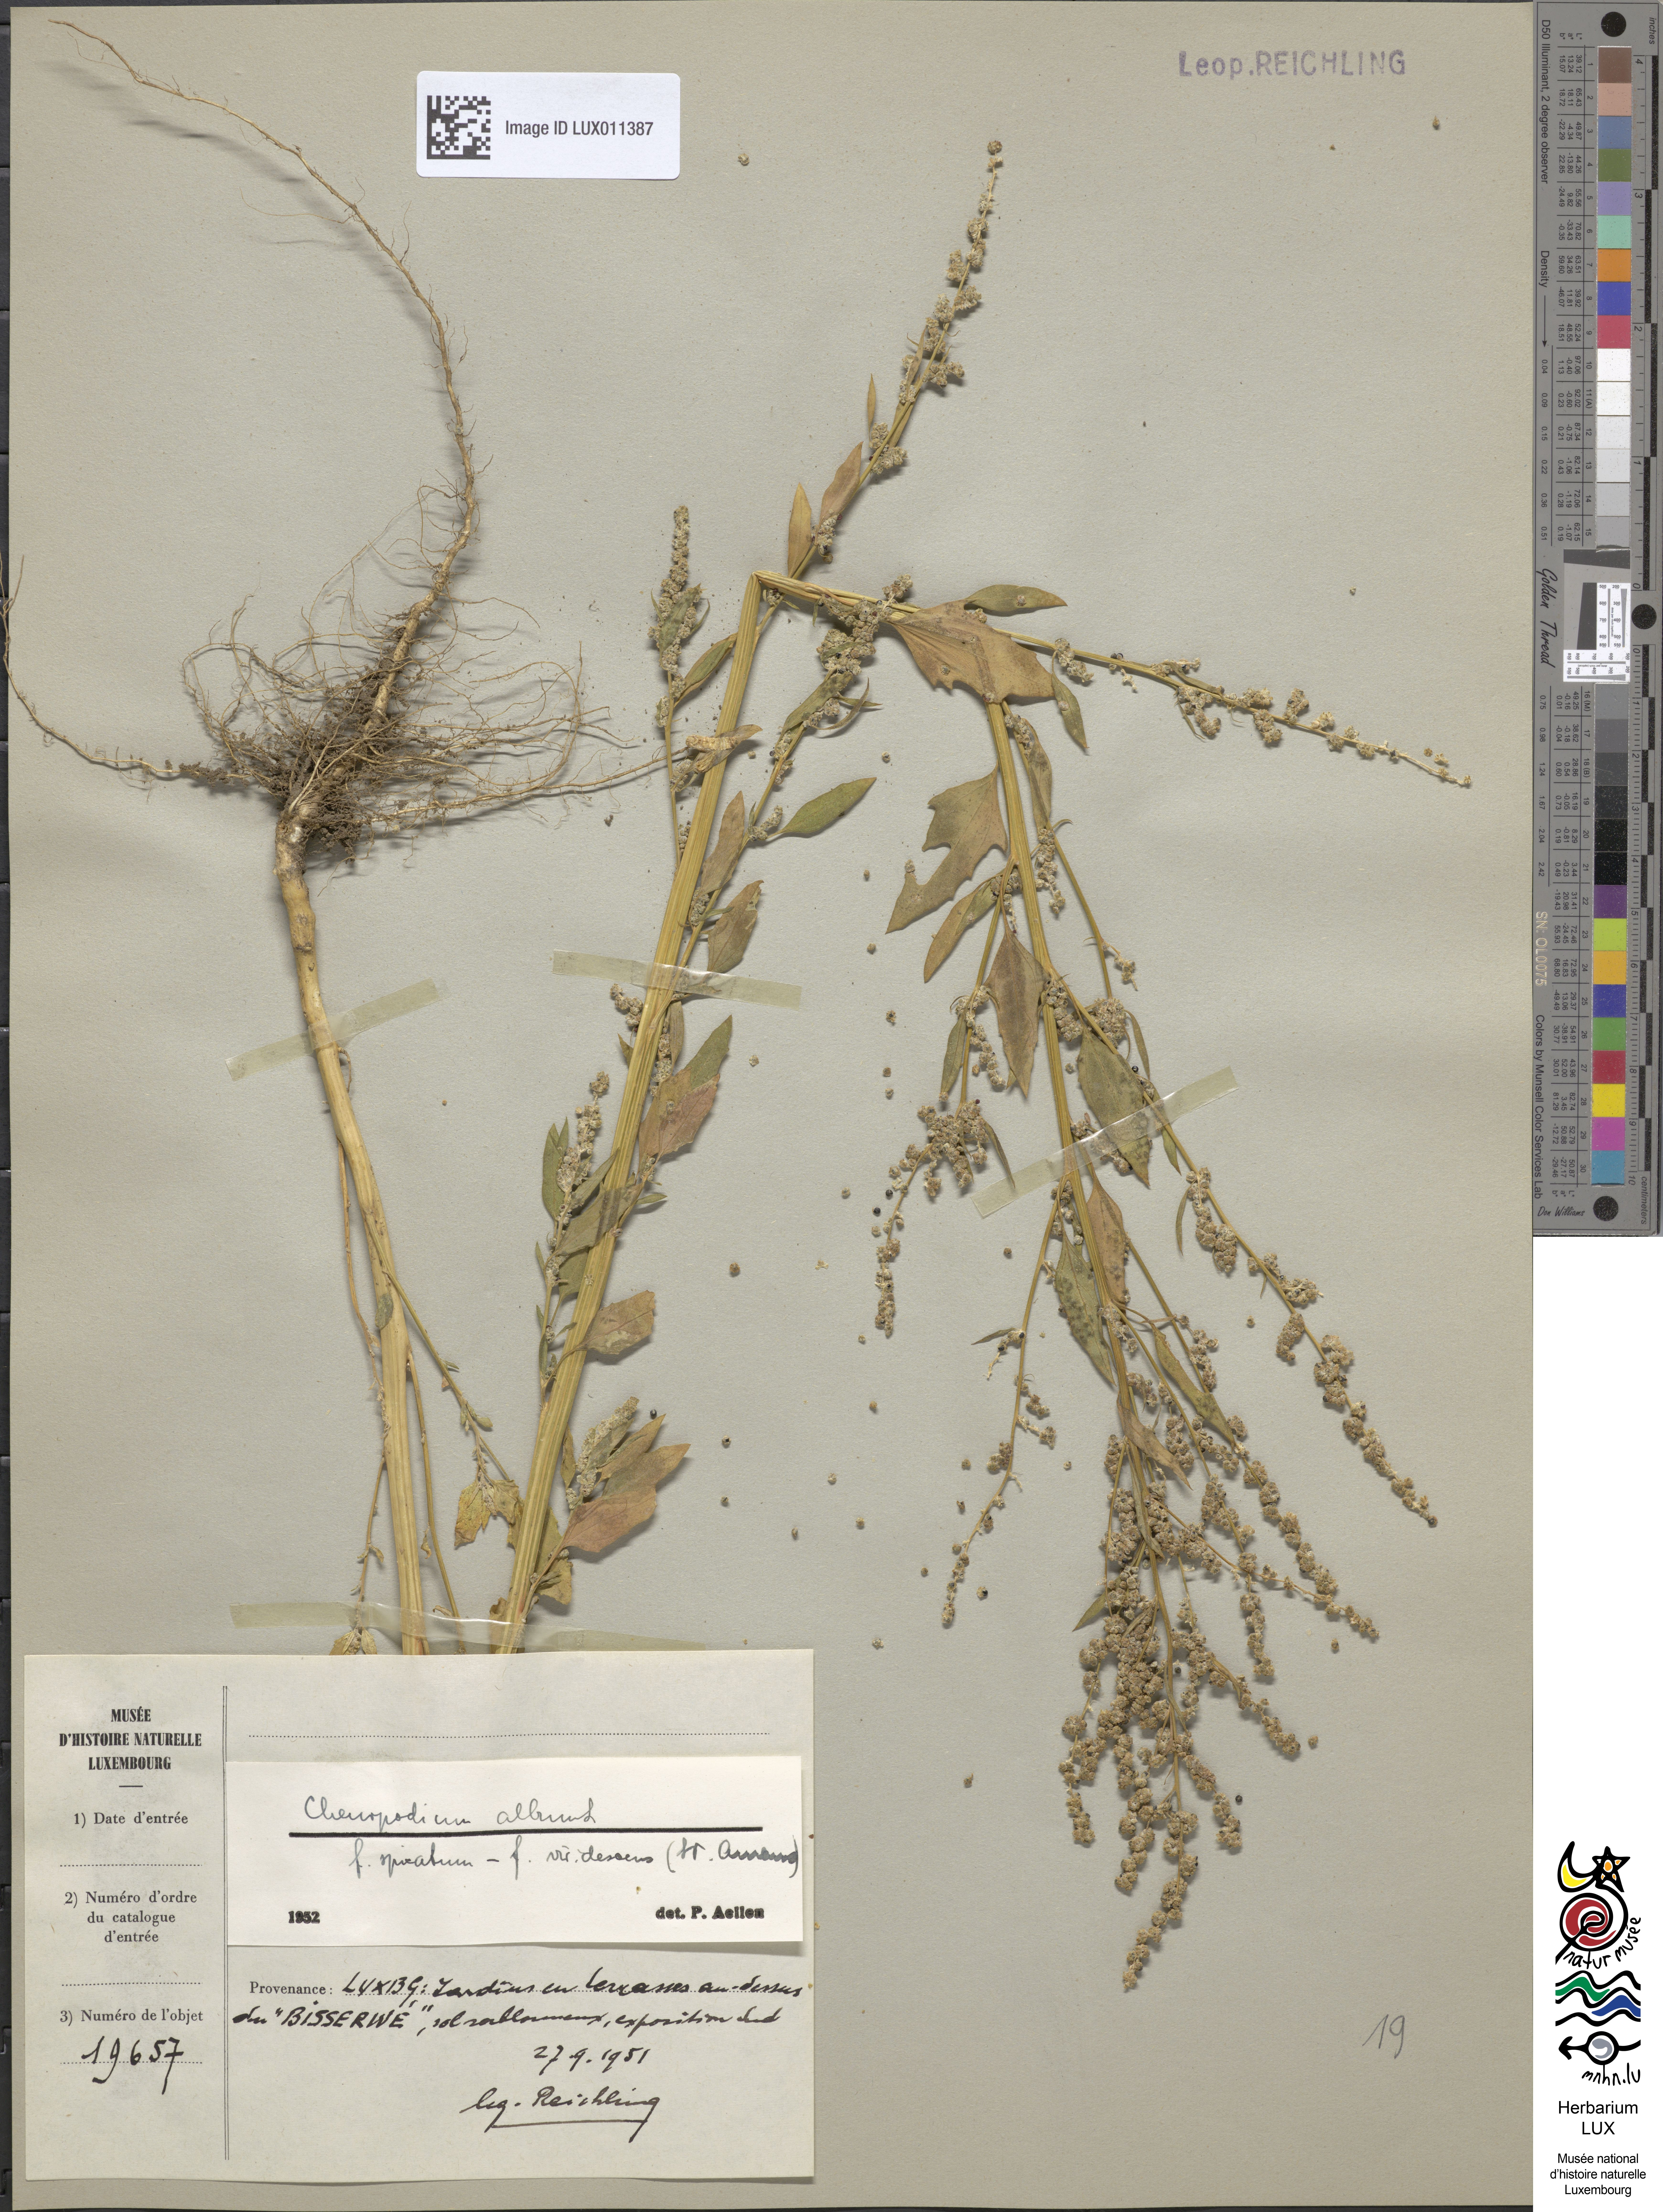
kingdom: Plantae
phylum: Tracheophyta
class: Magnoliopsida
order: Caryophyllales
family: Amaranthaceae
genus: Chenopodium
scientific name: Chenopodium album
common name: Fat-hen
